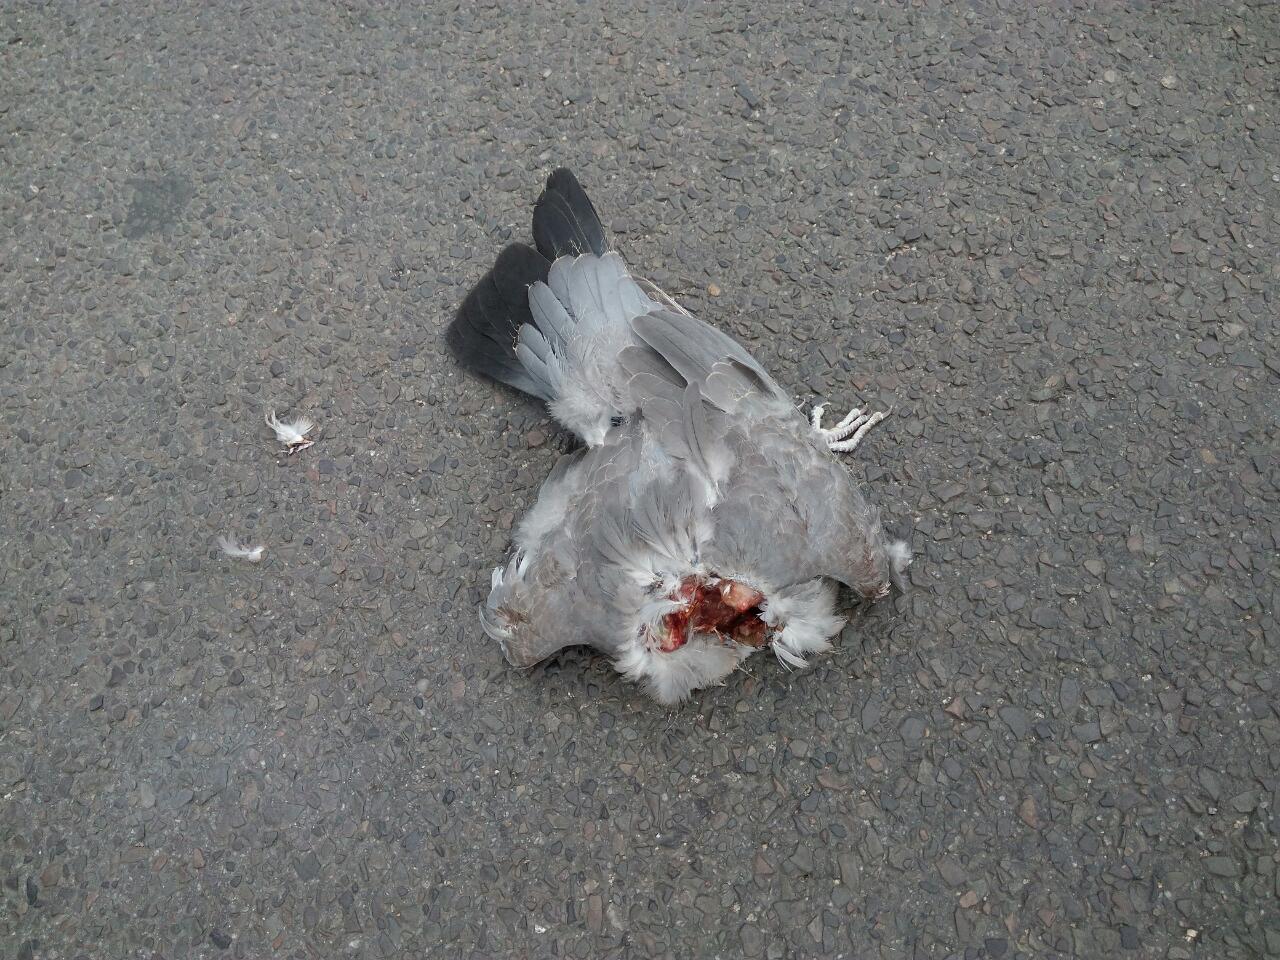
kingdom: Animalia
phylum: Chordata
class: Aves
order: Columbiformes
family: Columbidae
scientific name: Columbidae
